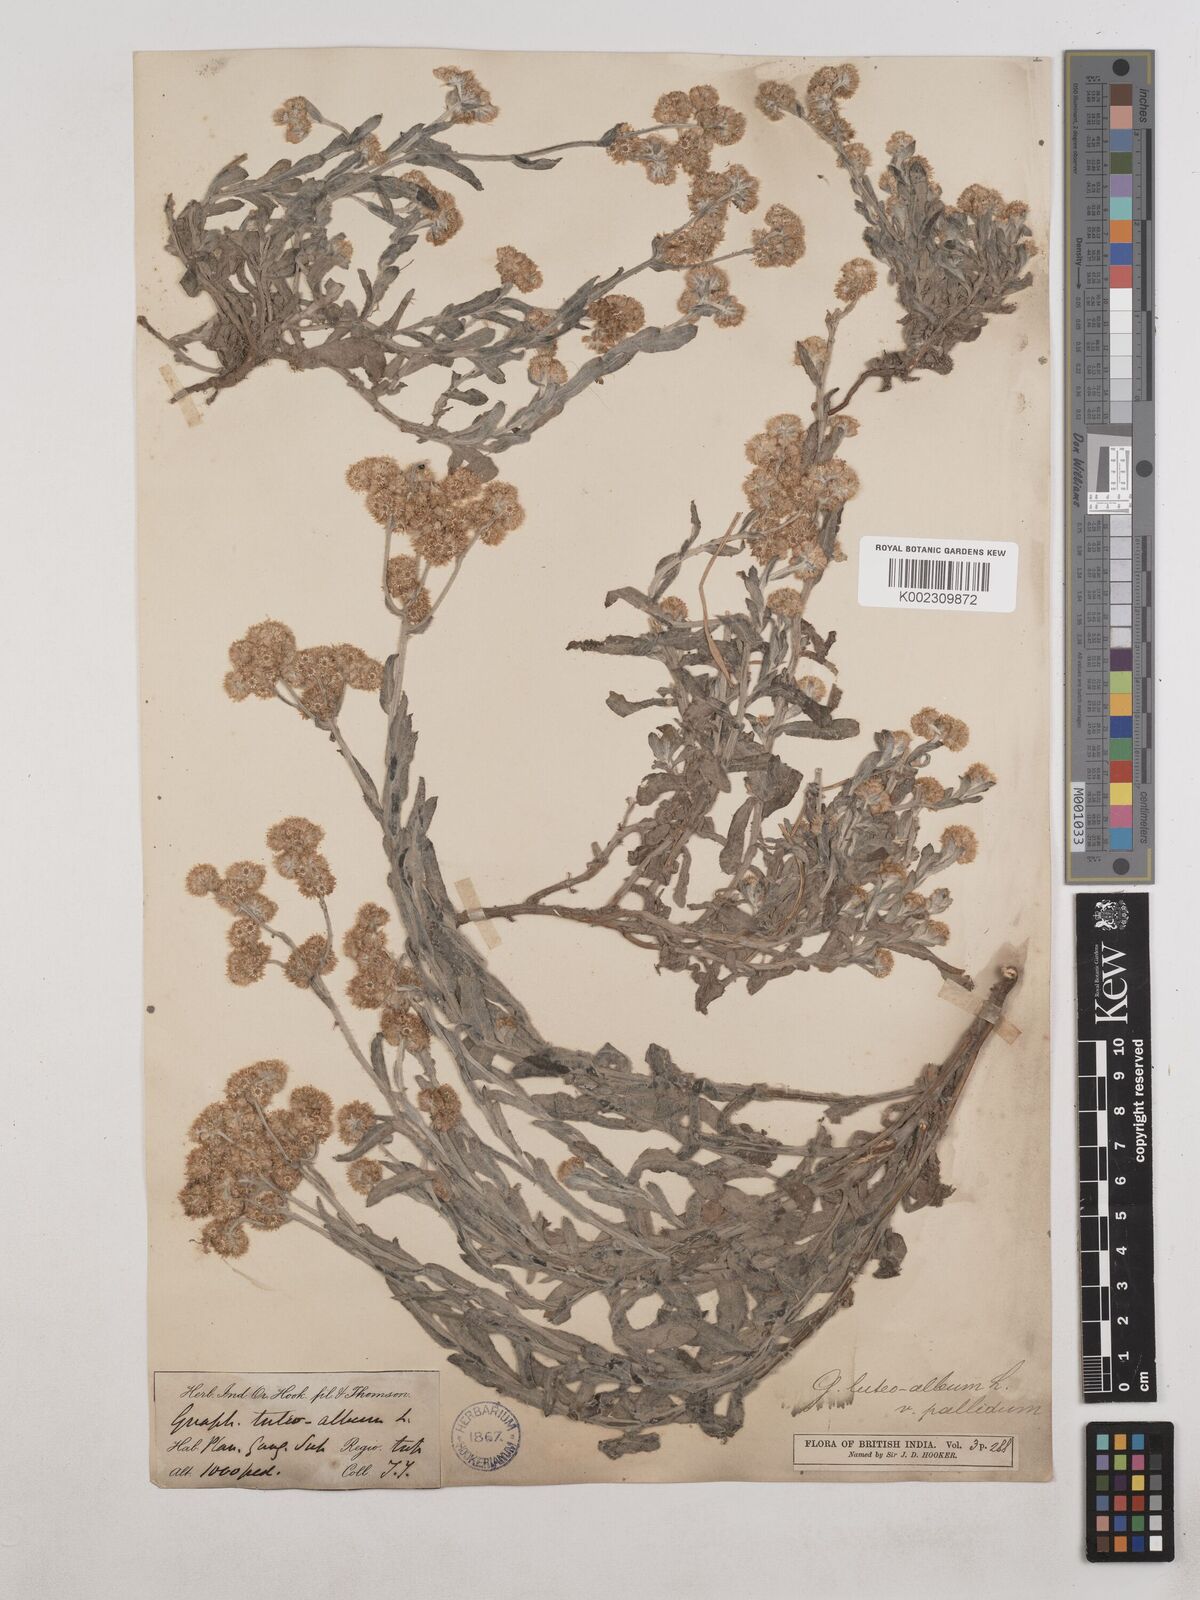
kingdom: Plantae
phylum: Tracheophyta
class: Magnoliopsida
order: Asterales
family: Asteraceae
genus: Helichrysum
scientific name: Helichrysum luteoalbum
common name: Daisy
